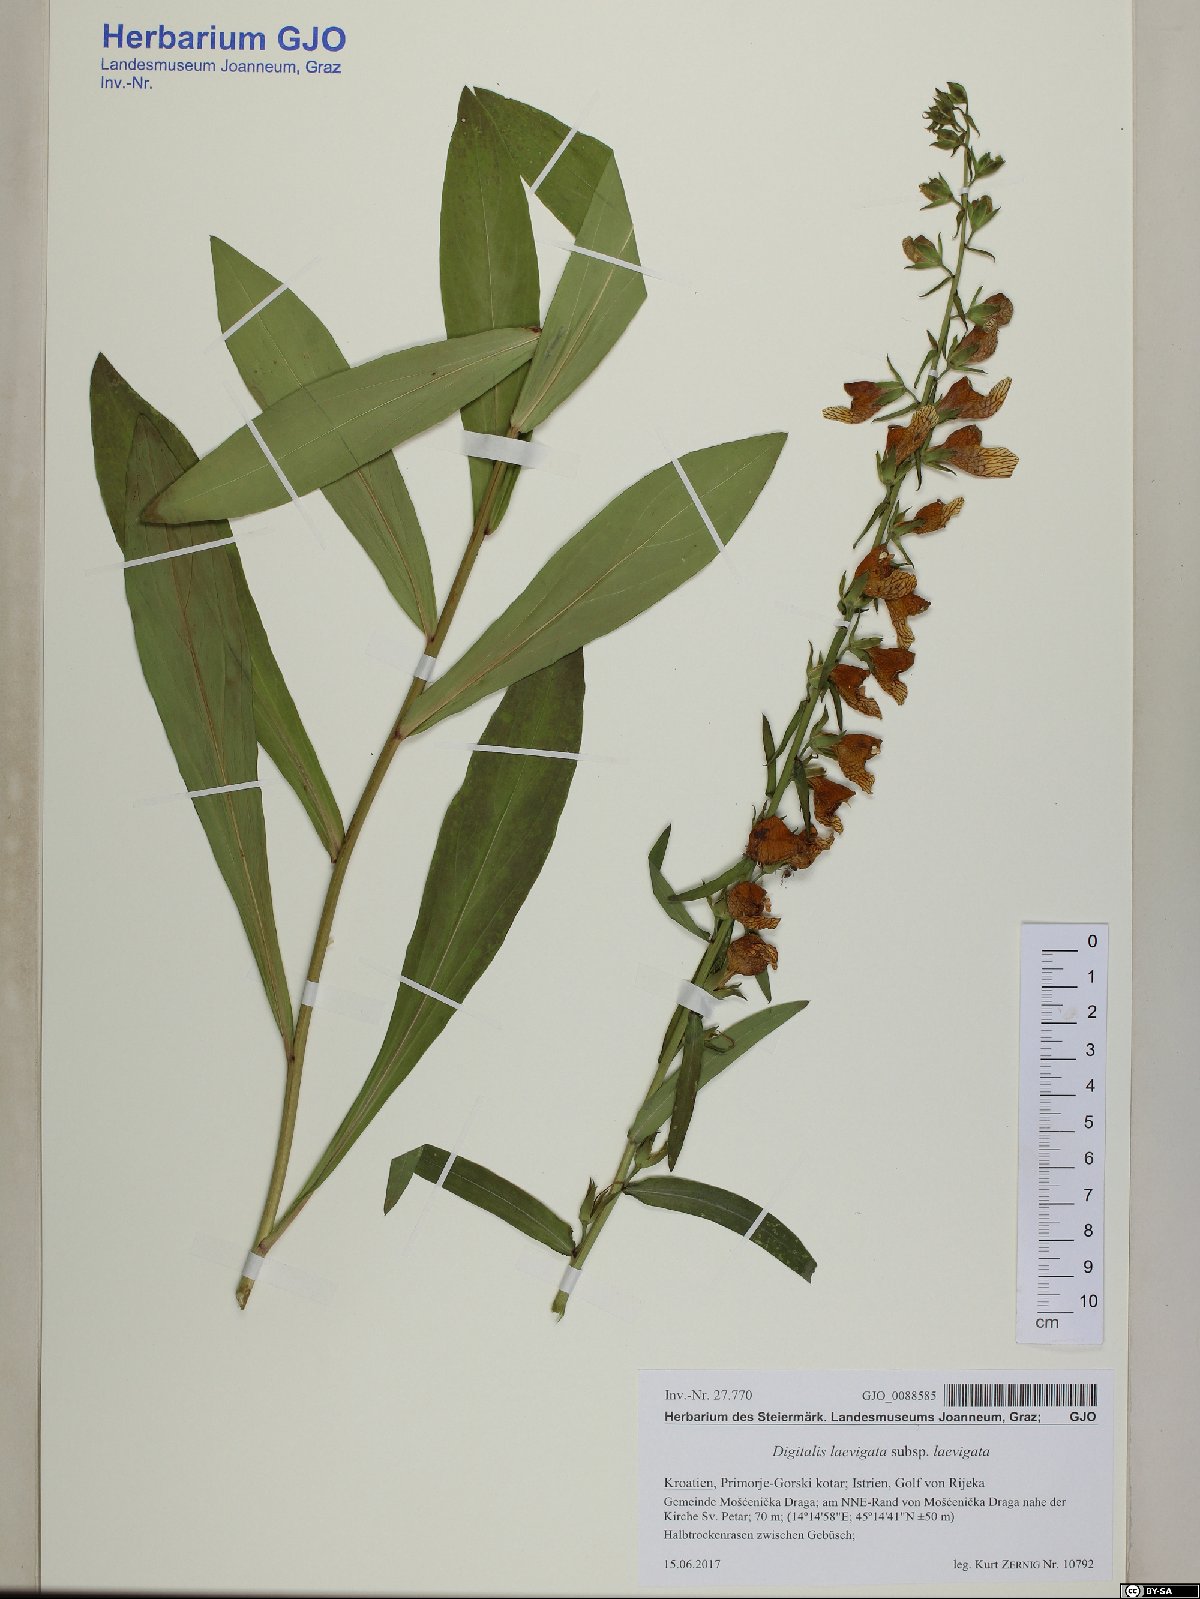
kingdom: Plantae
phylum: Tracheophyta
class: Magnoliopsida
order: Lamiales
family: Plantaginaceae
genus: Digitalis
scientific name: Digitalis laevigata
